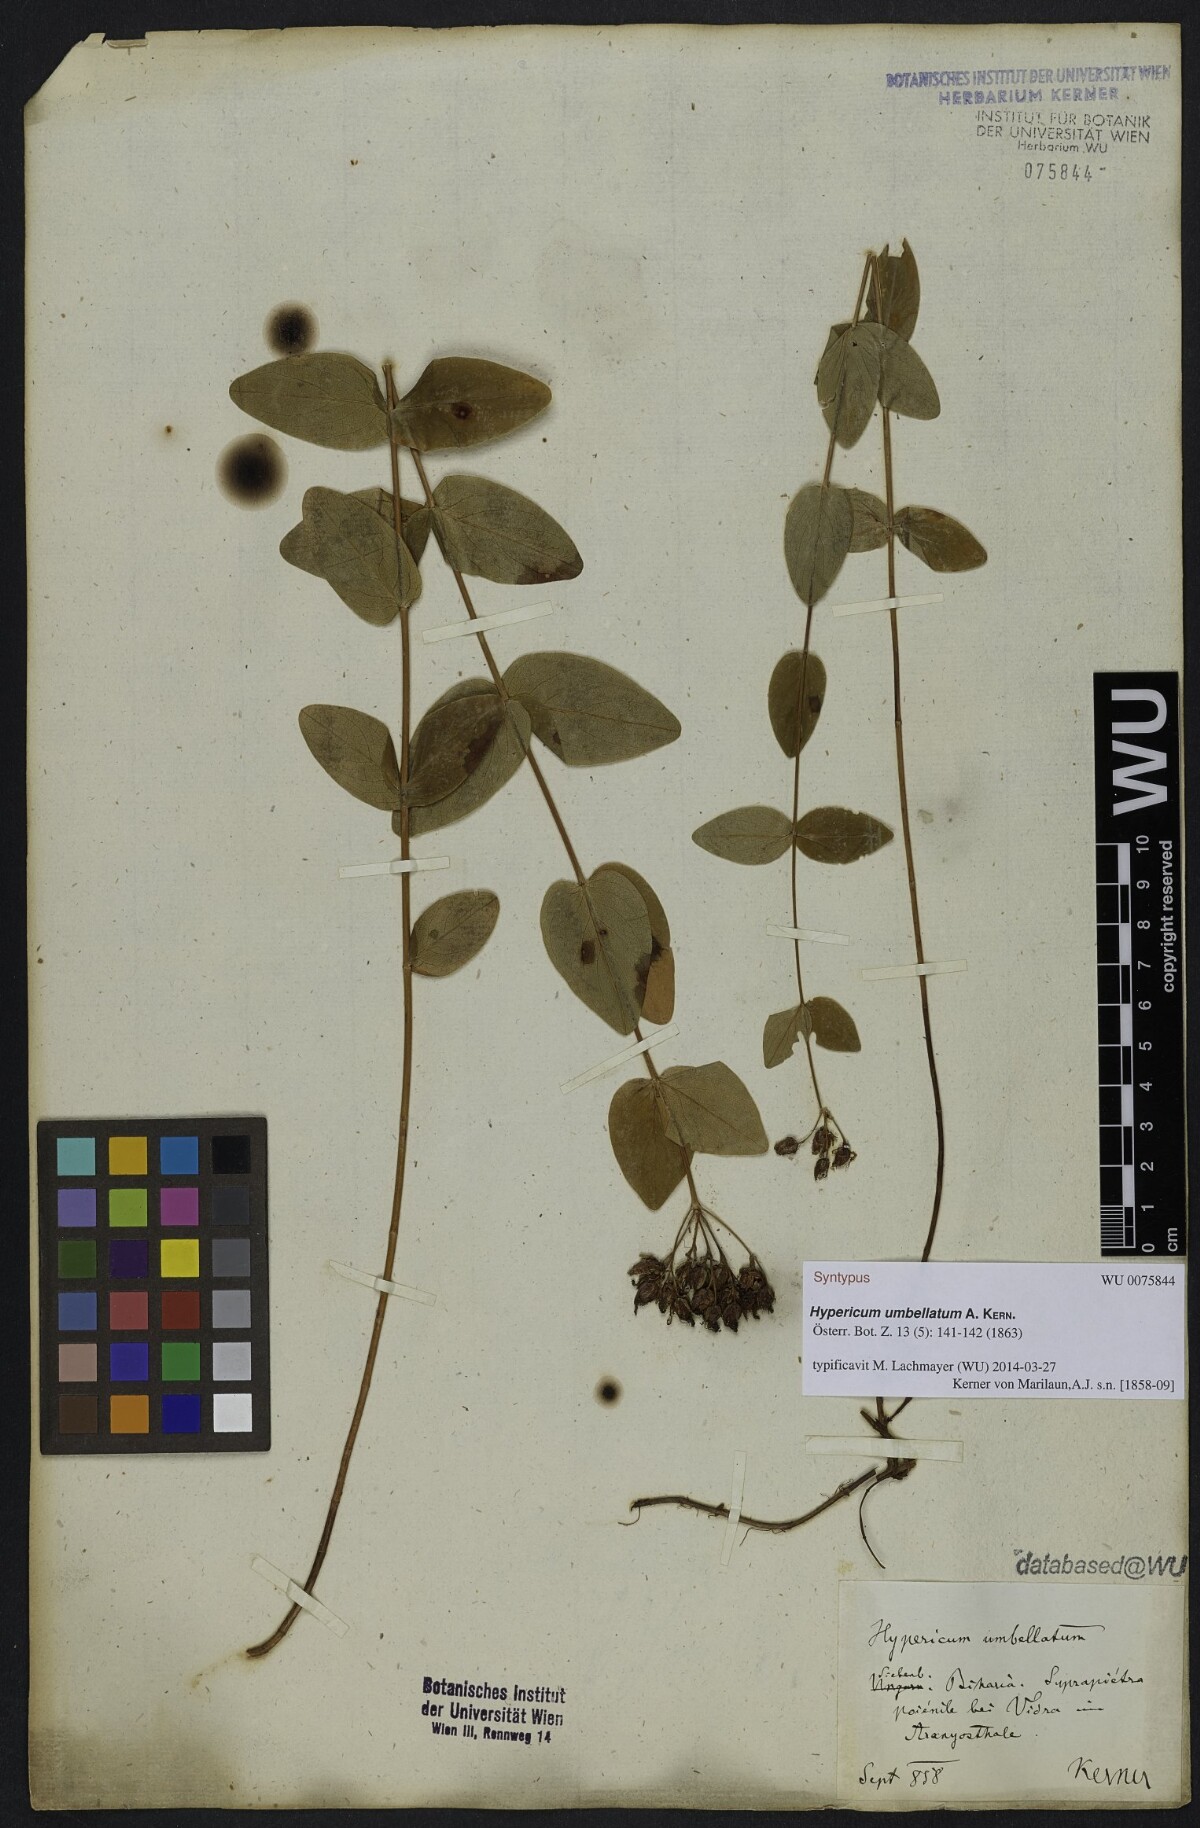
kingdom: Plantae
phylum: Tracheophyta
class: Magnoliopsida
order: Malpighiales
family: Hypericaceae
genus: Hypericum
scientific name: Hypericum umbellatum
